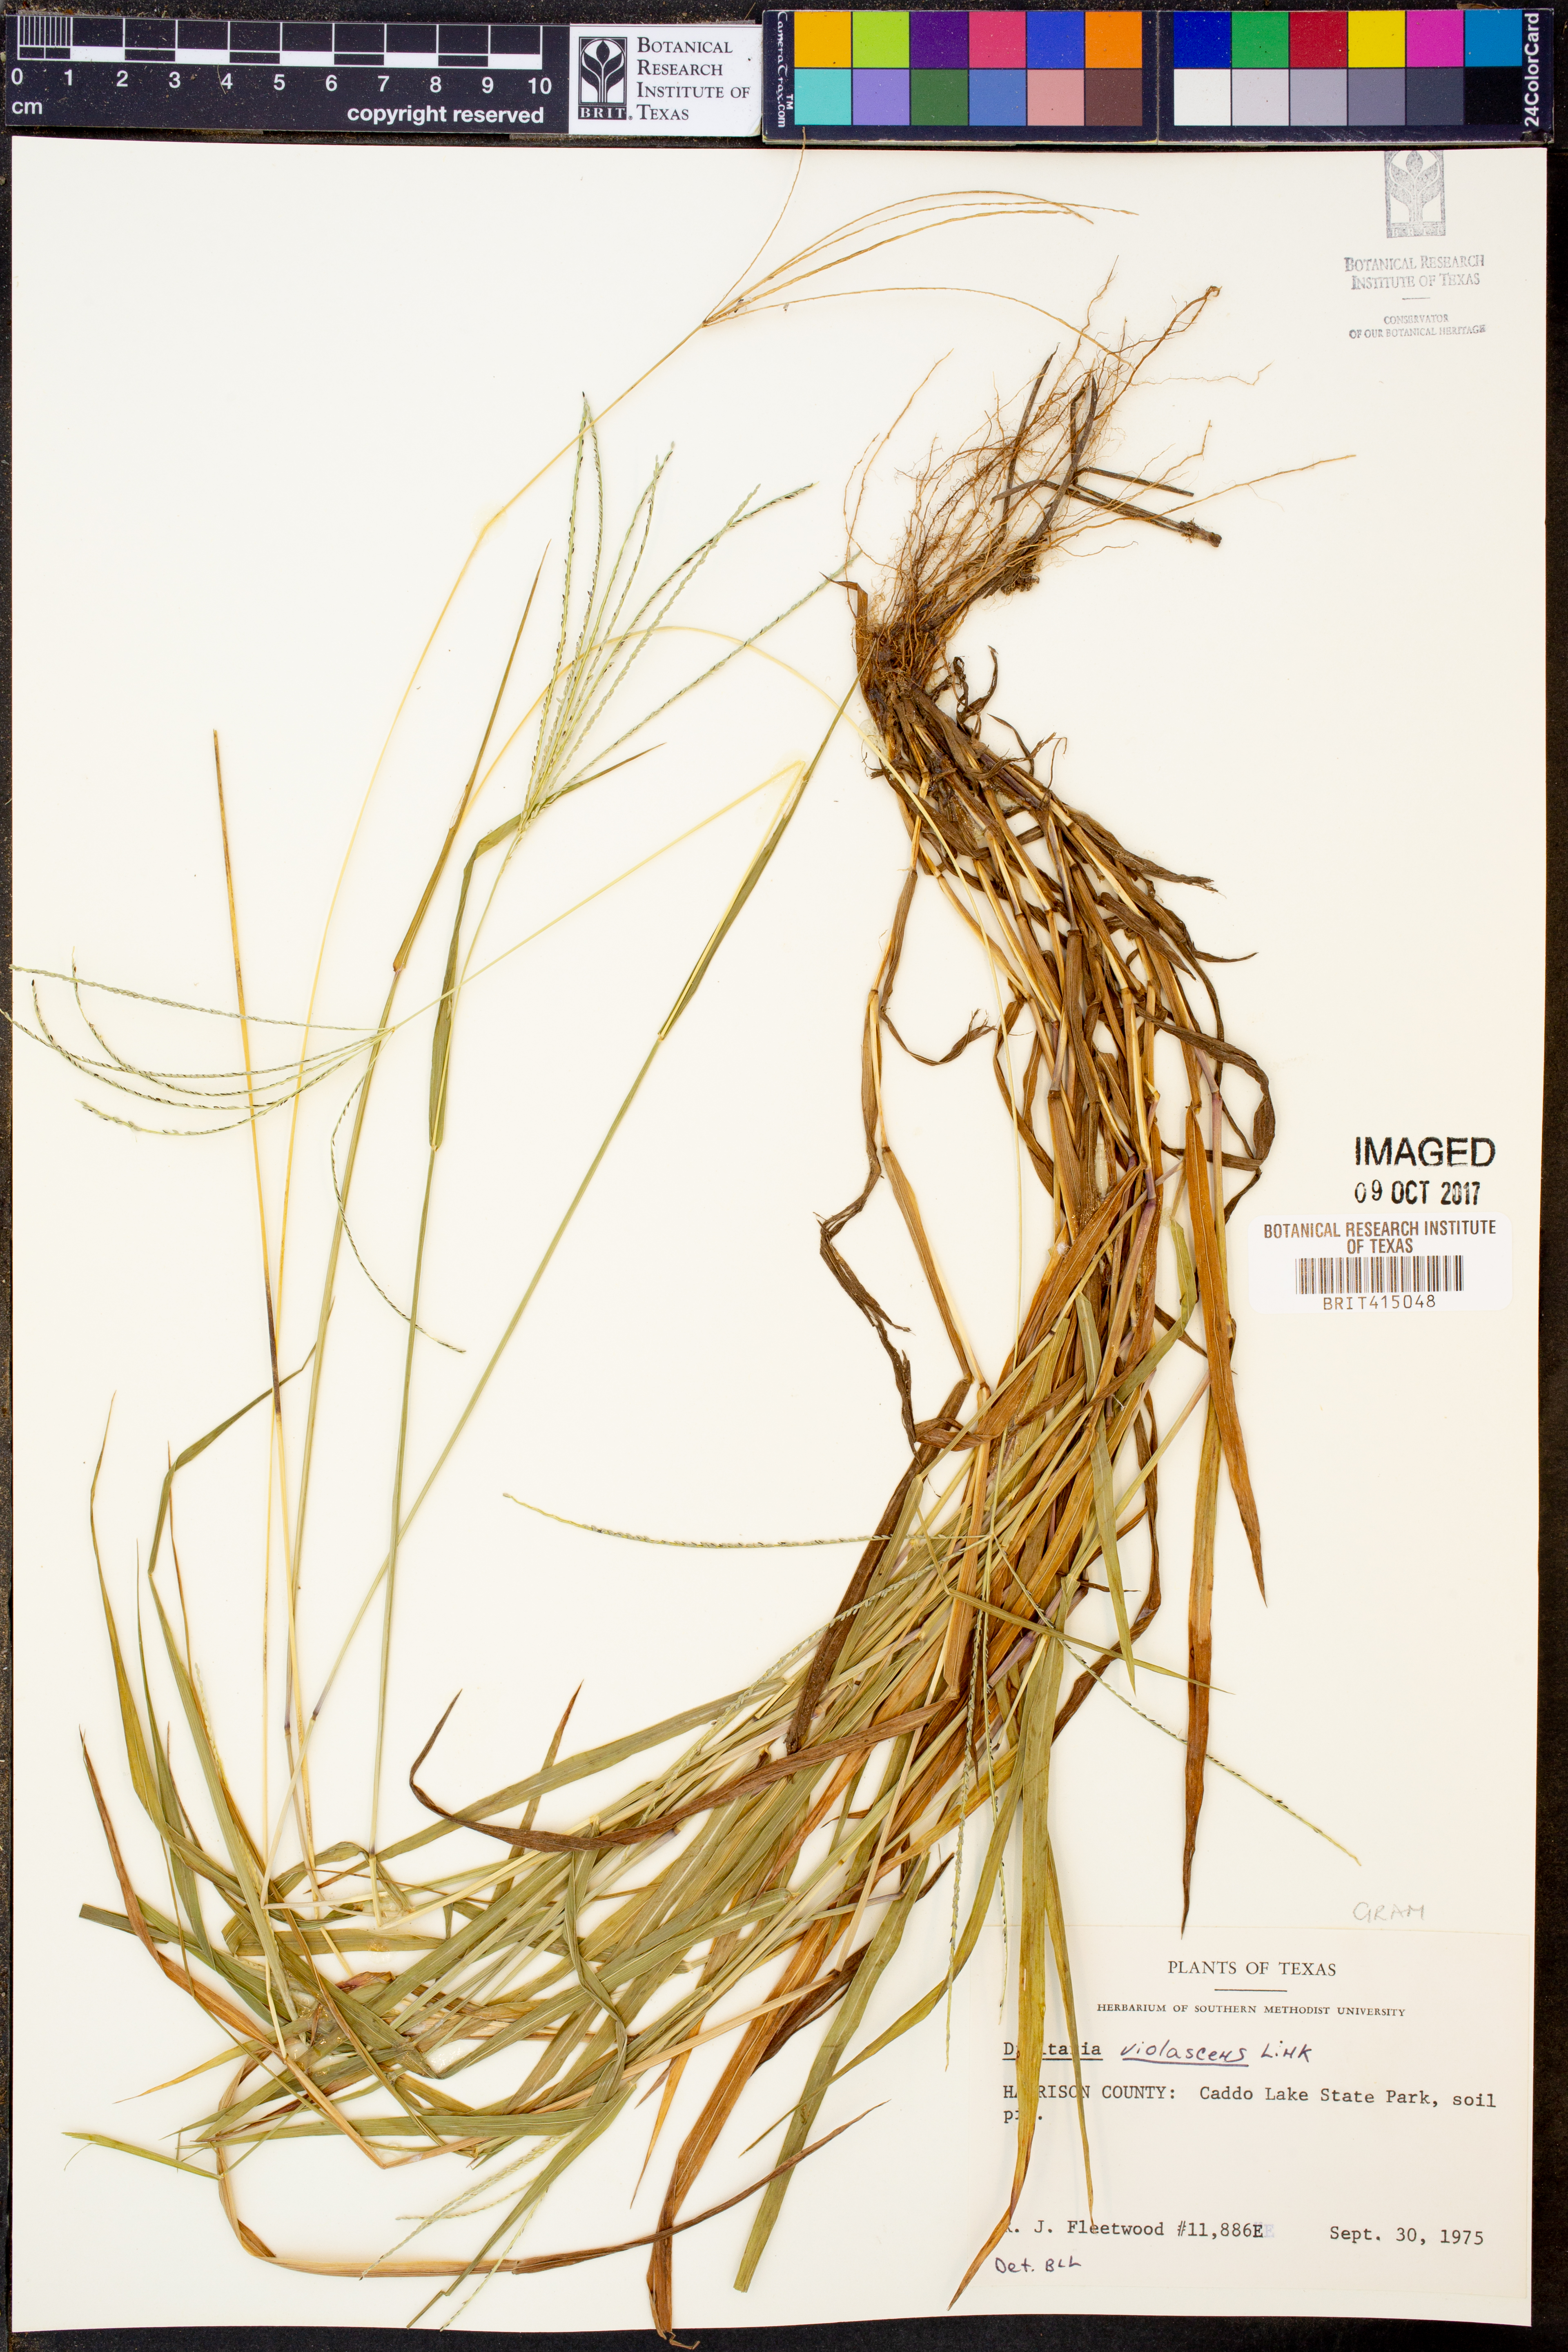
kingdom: Plantae
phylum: Tracheophyta
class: Liliopsida
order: Poales
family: Poaceae
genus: Digitaria
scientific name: Digitaria violascens
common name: Violet crabgrass
